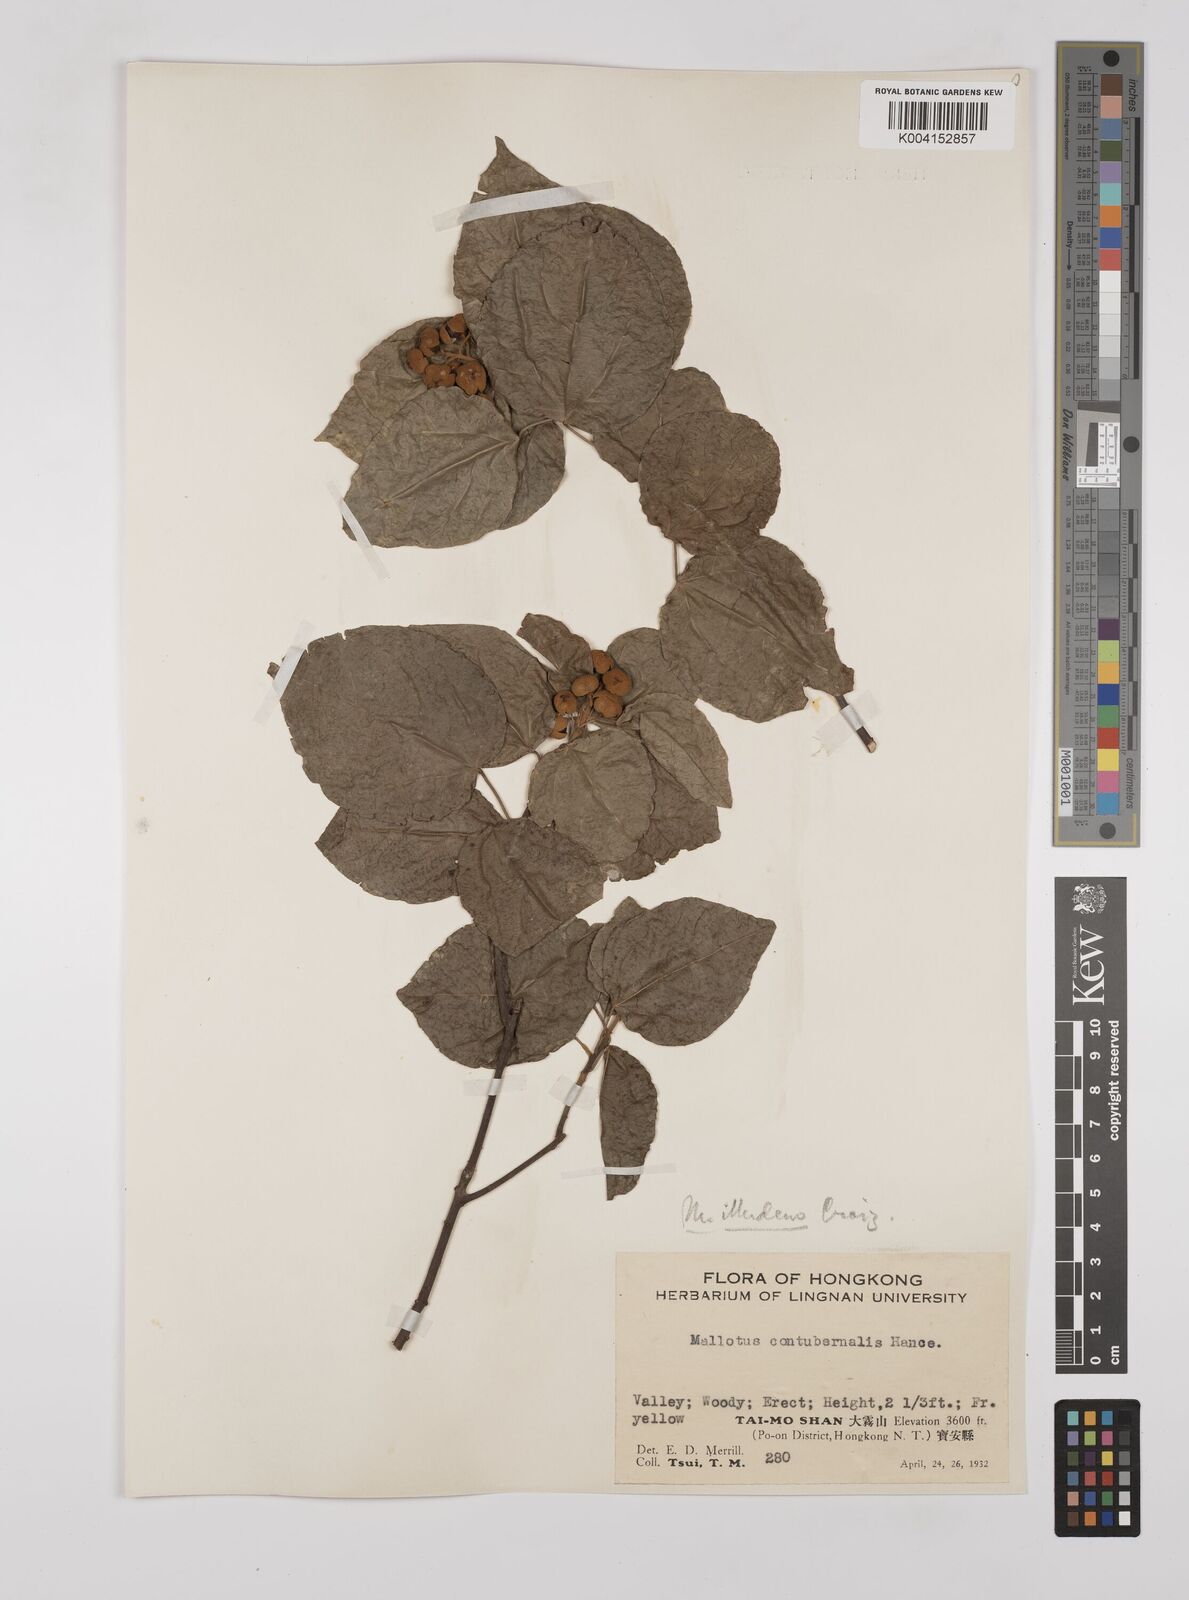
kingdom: Plantae
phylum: Tracheophyta
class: Magnoliopsida
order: Malpighiales
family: Euphorbiaceae
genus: Mallotus
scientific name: Mallotus illudens
